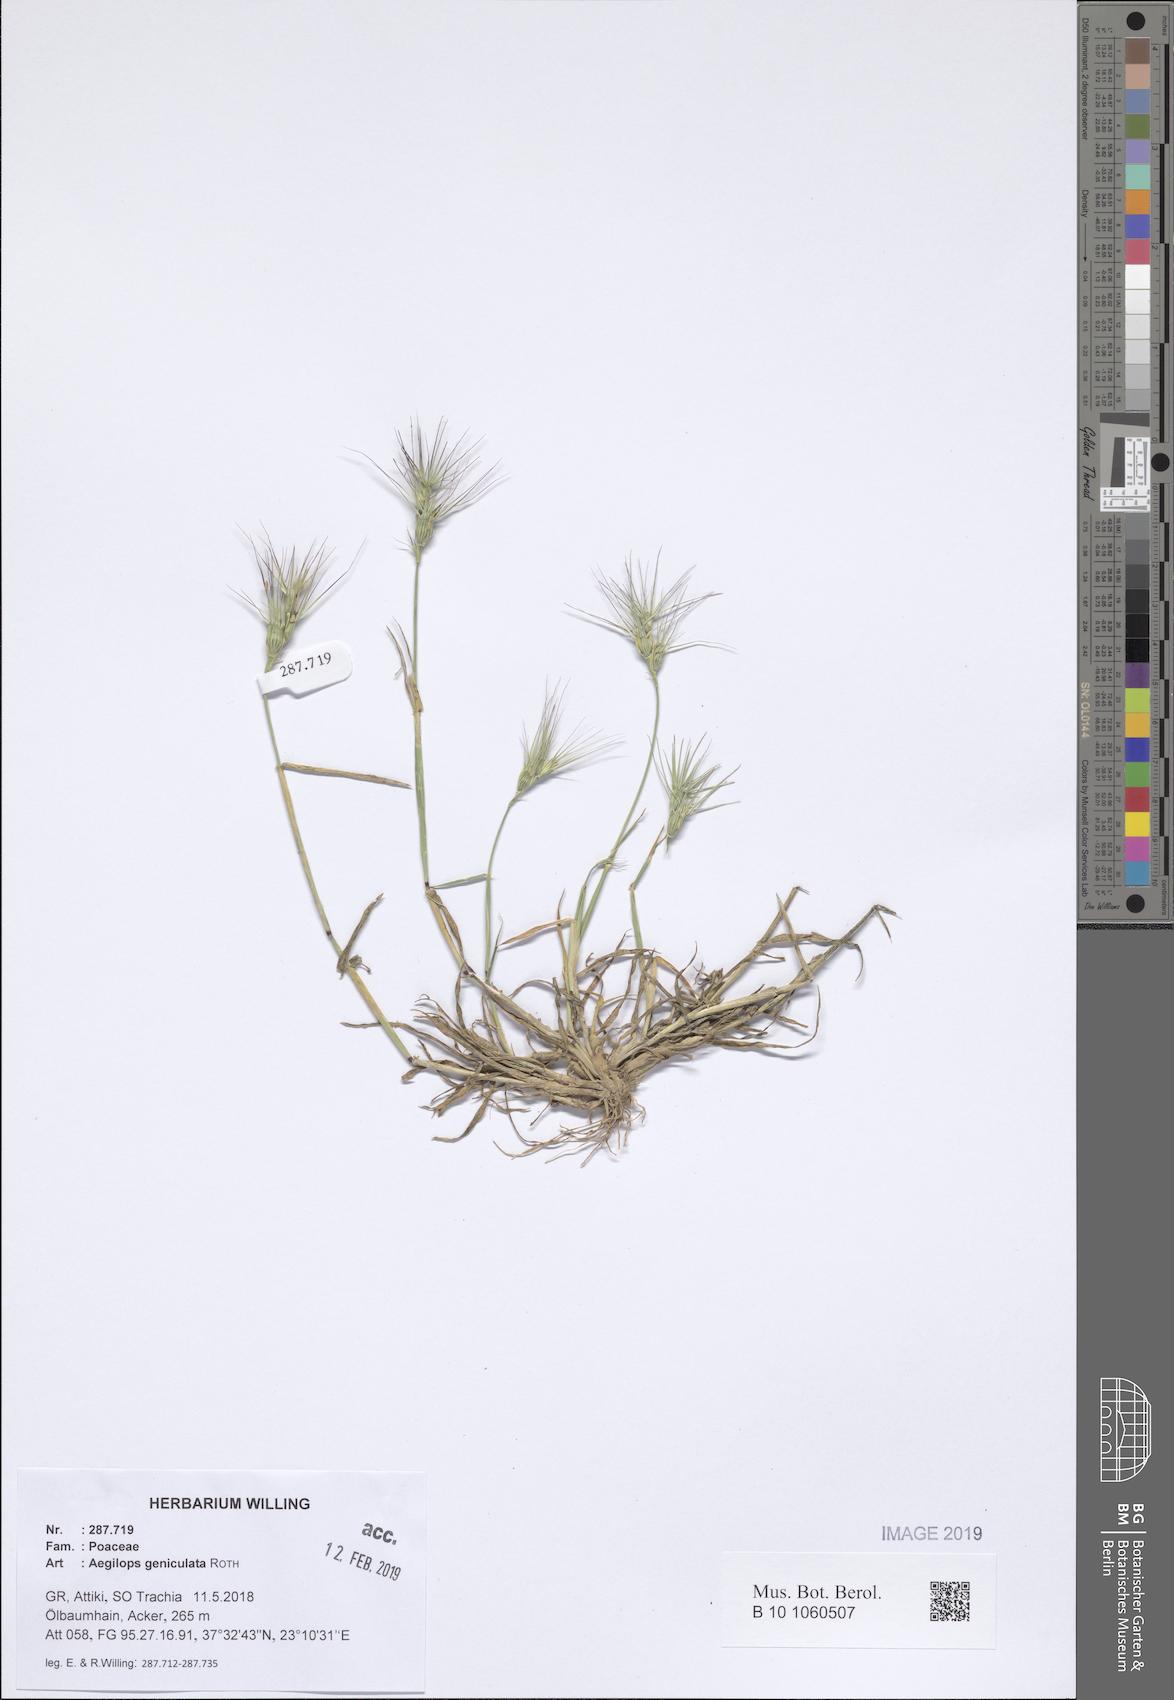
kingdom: Plantae
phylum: Tracheophyta
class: Liliopsida
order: Poales
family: Poaceae
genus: Aegilops
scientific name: Aegilops geniculata
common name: Ovate goat grass
